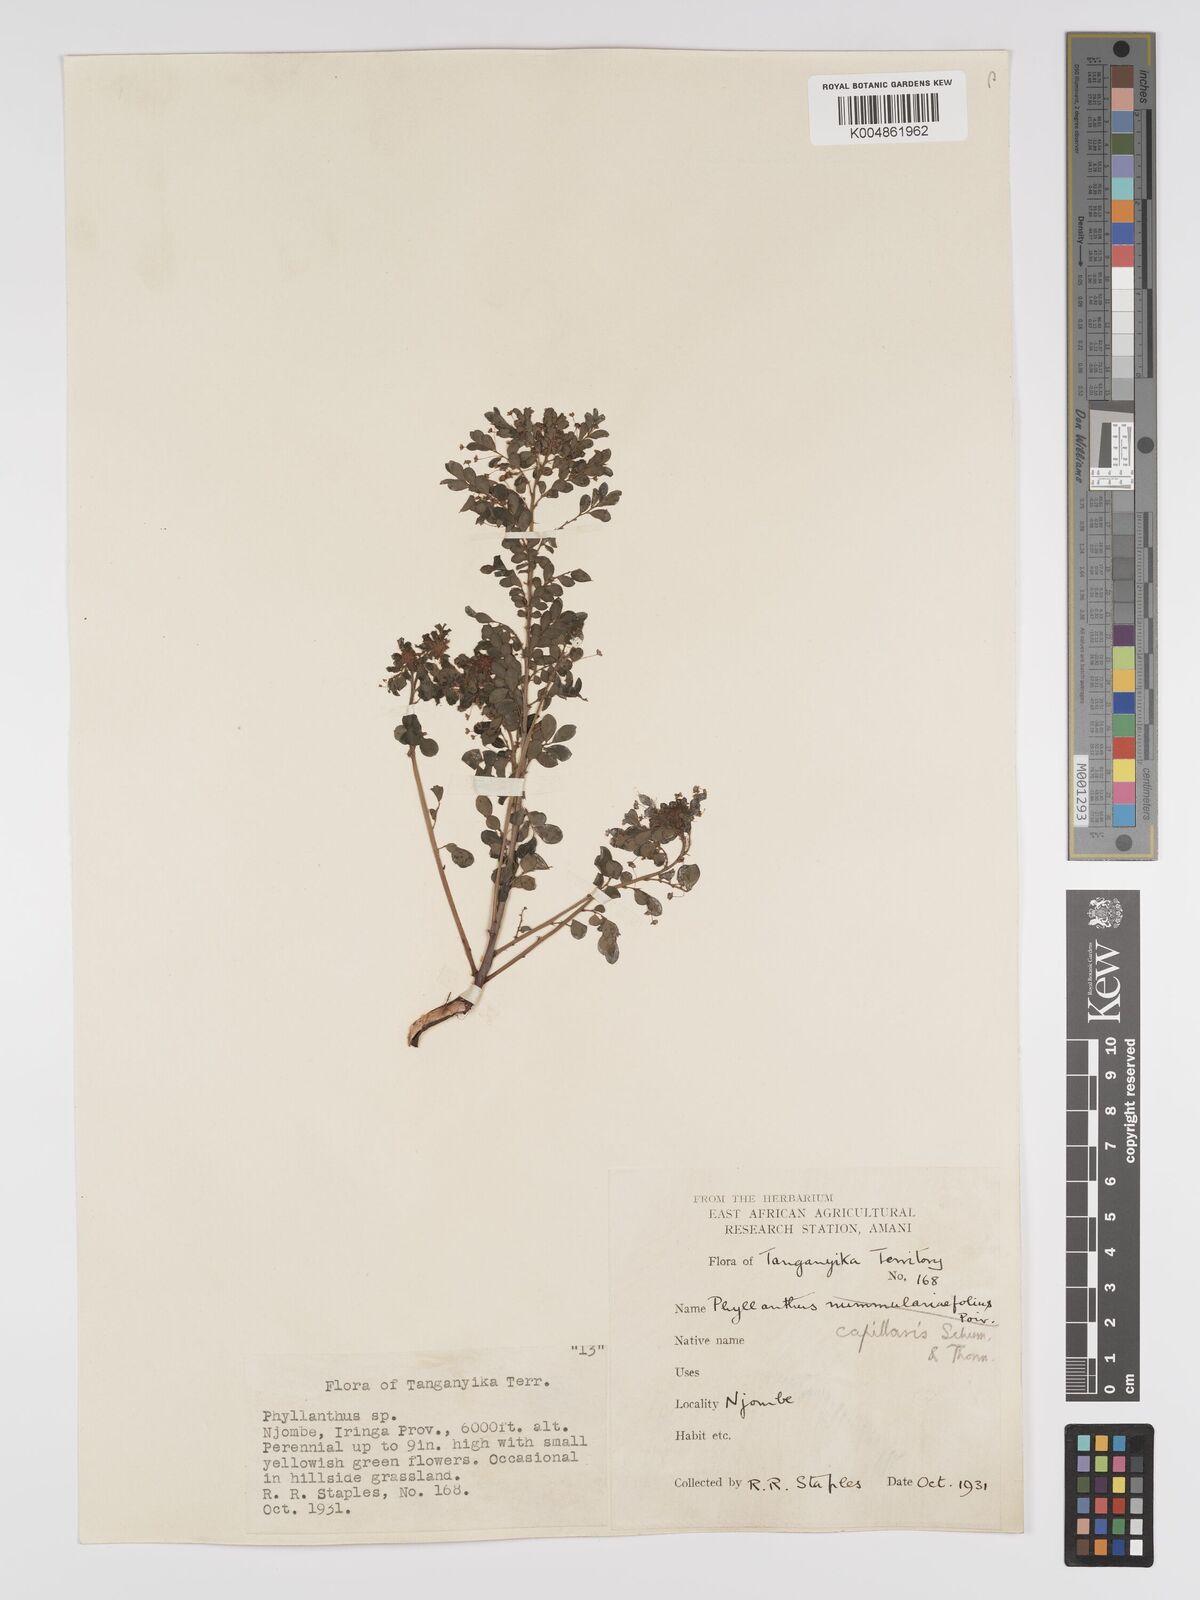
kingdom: Plantae
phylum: Tracheophyta
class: Magnoliopsida
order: Malpighiales
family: Phyllanthaceae
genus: Phyllanthus
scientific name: Phyllanthus nummulariifolius
